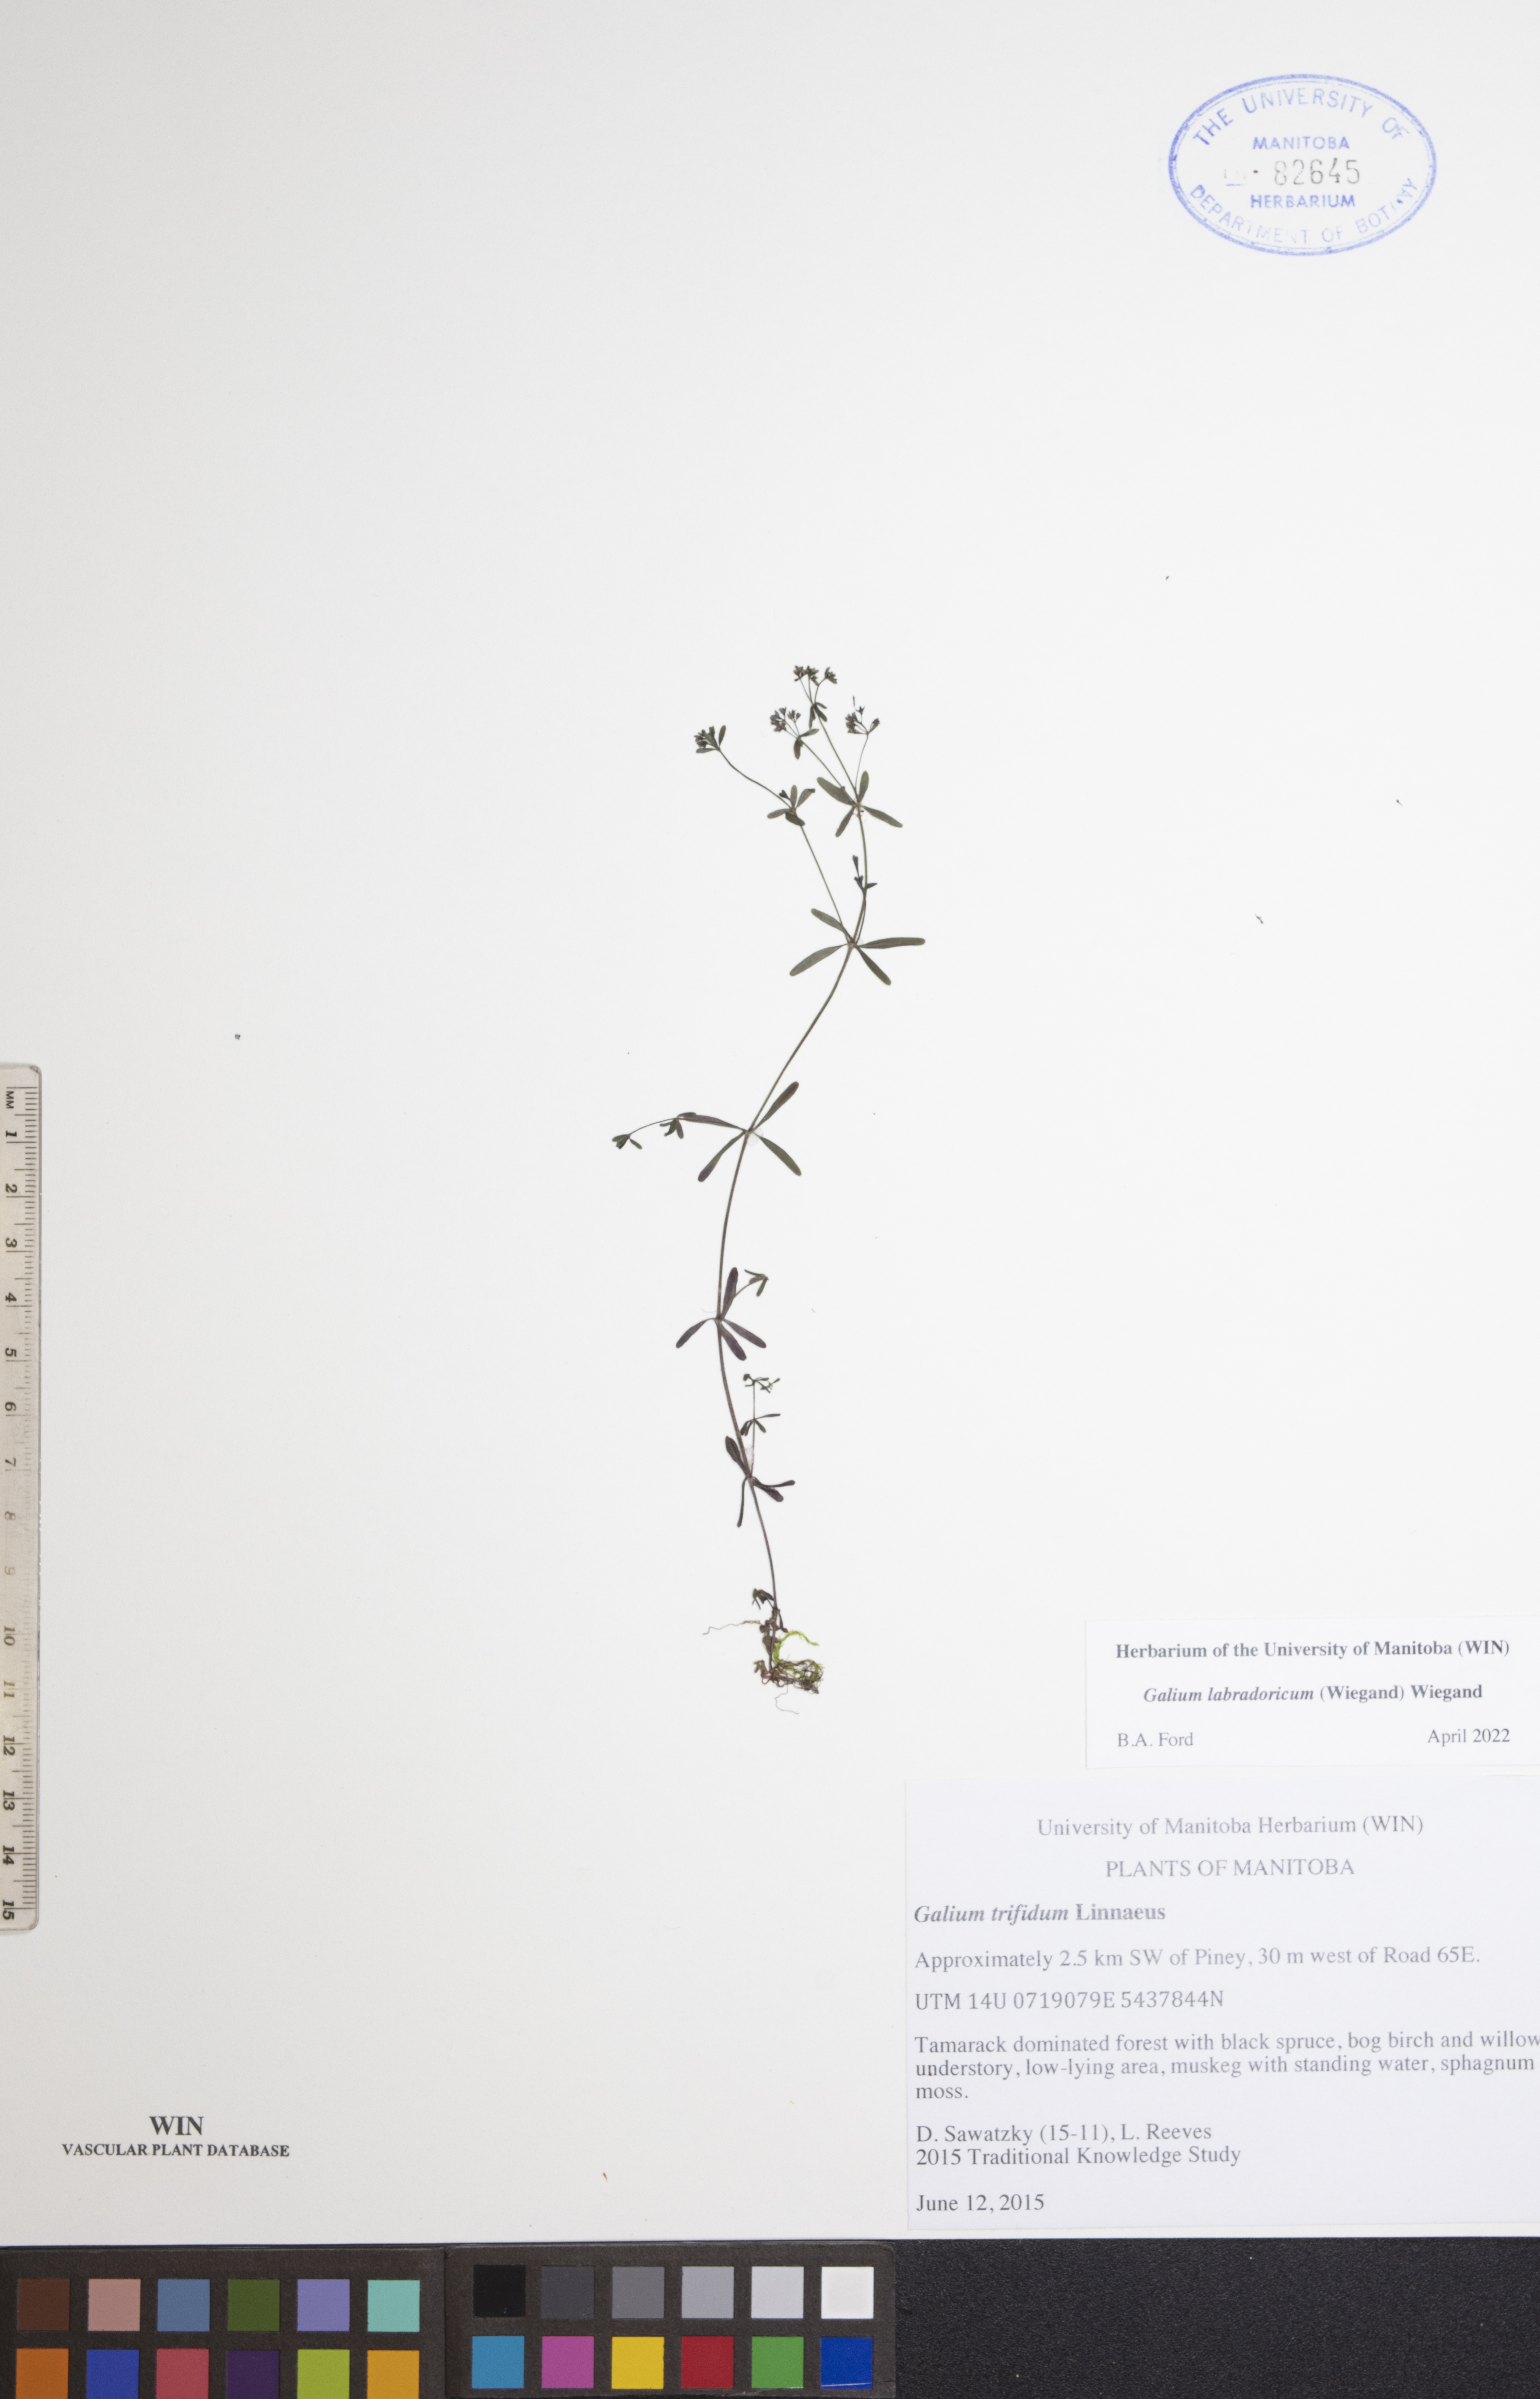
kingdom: Plantae
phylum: Tracheophyta
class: Magnoliopsida
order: Gentianales
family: Rubiaceae
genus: Galium
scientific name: Galium labradoricum
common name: Labrador bedstraw
